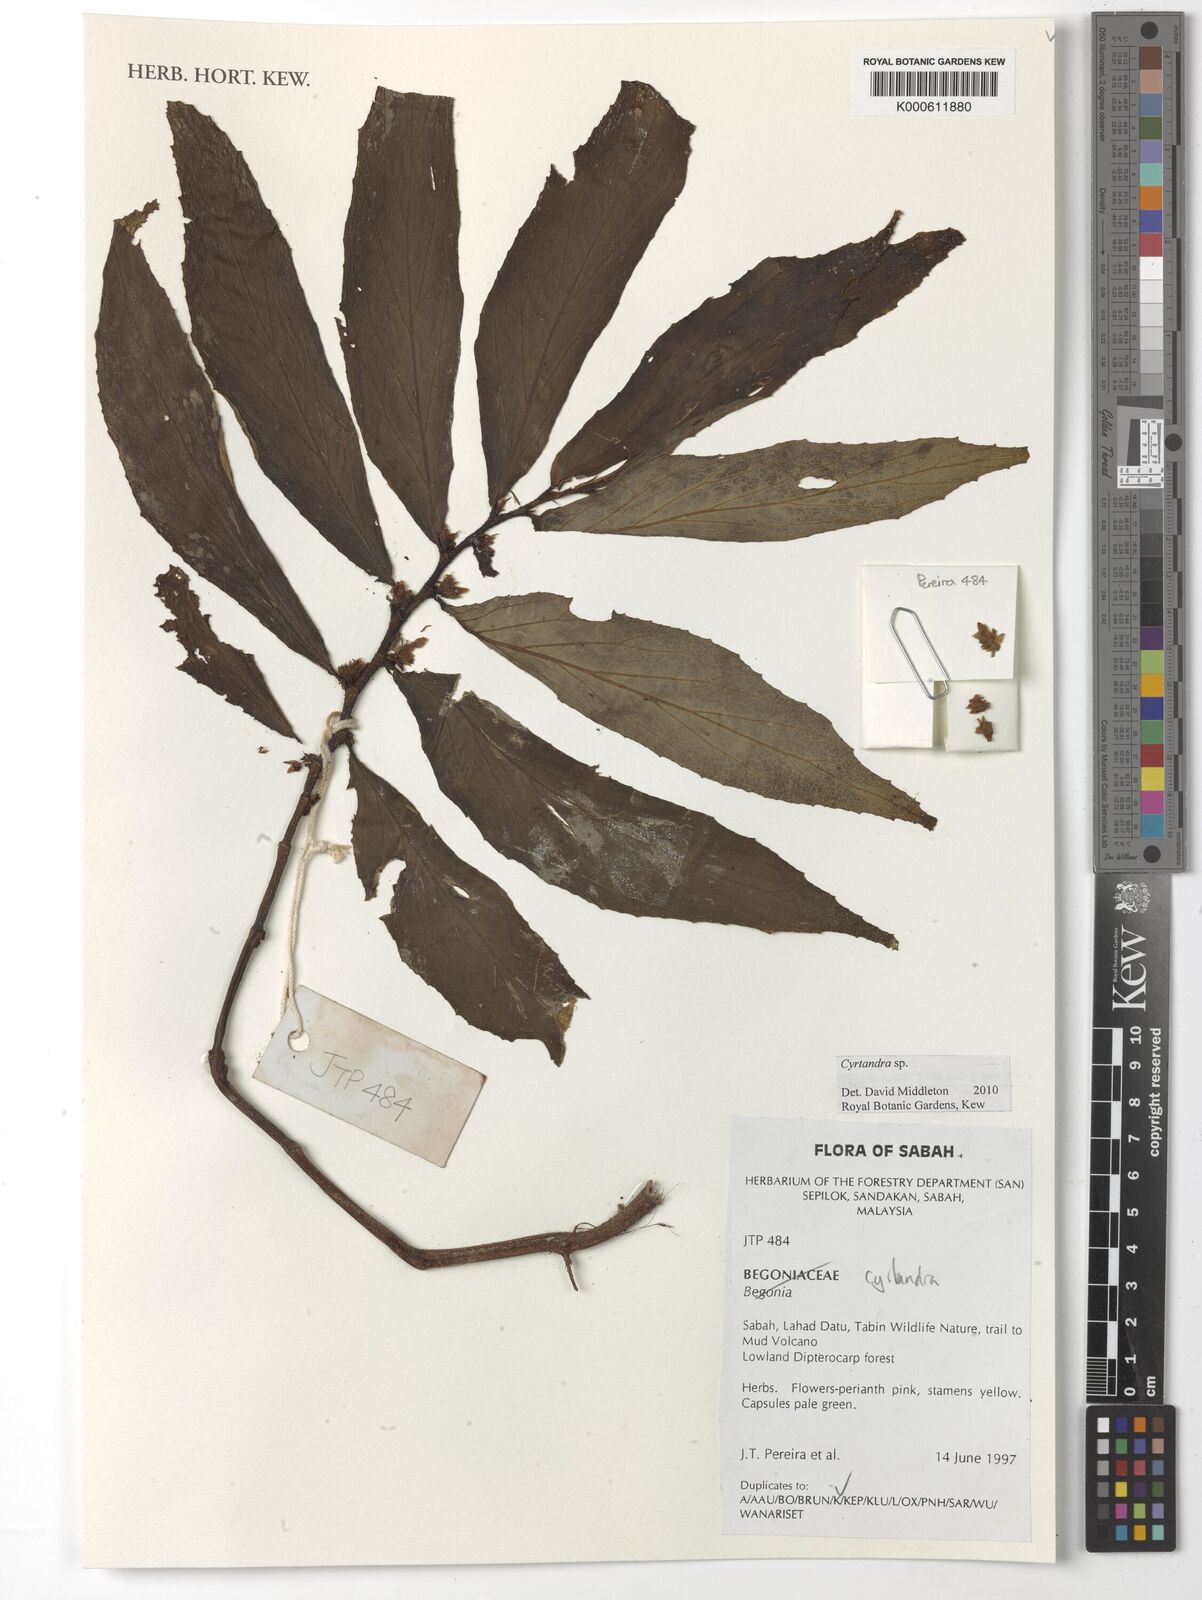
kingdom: Plantae
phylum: Tracheophyta
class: Magnoliopsida
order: Lamiales
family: Gesneriaceae
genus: Cyrtandra
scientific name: Cyrtandra
